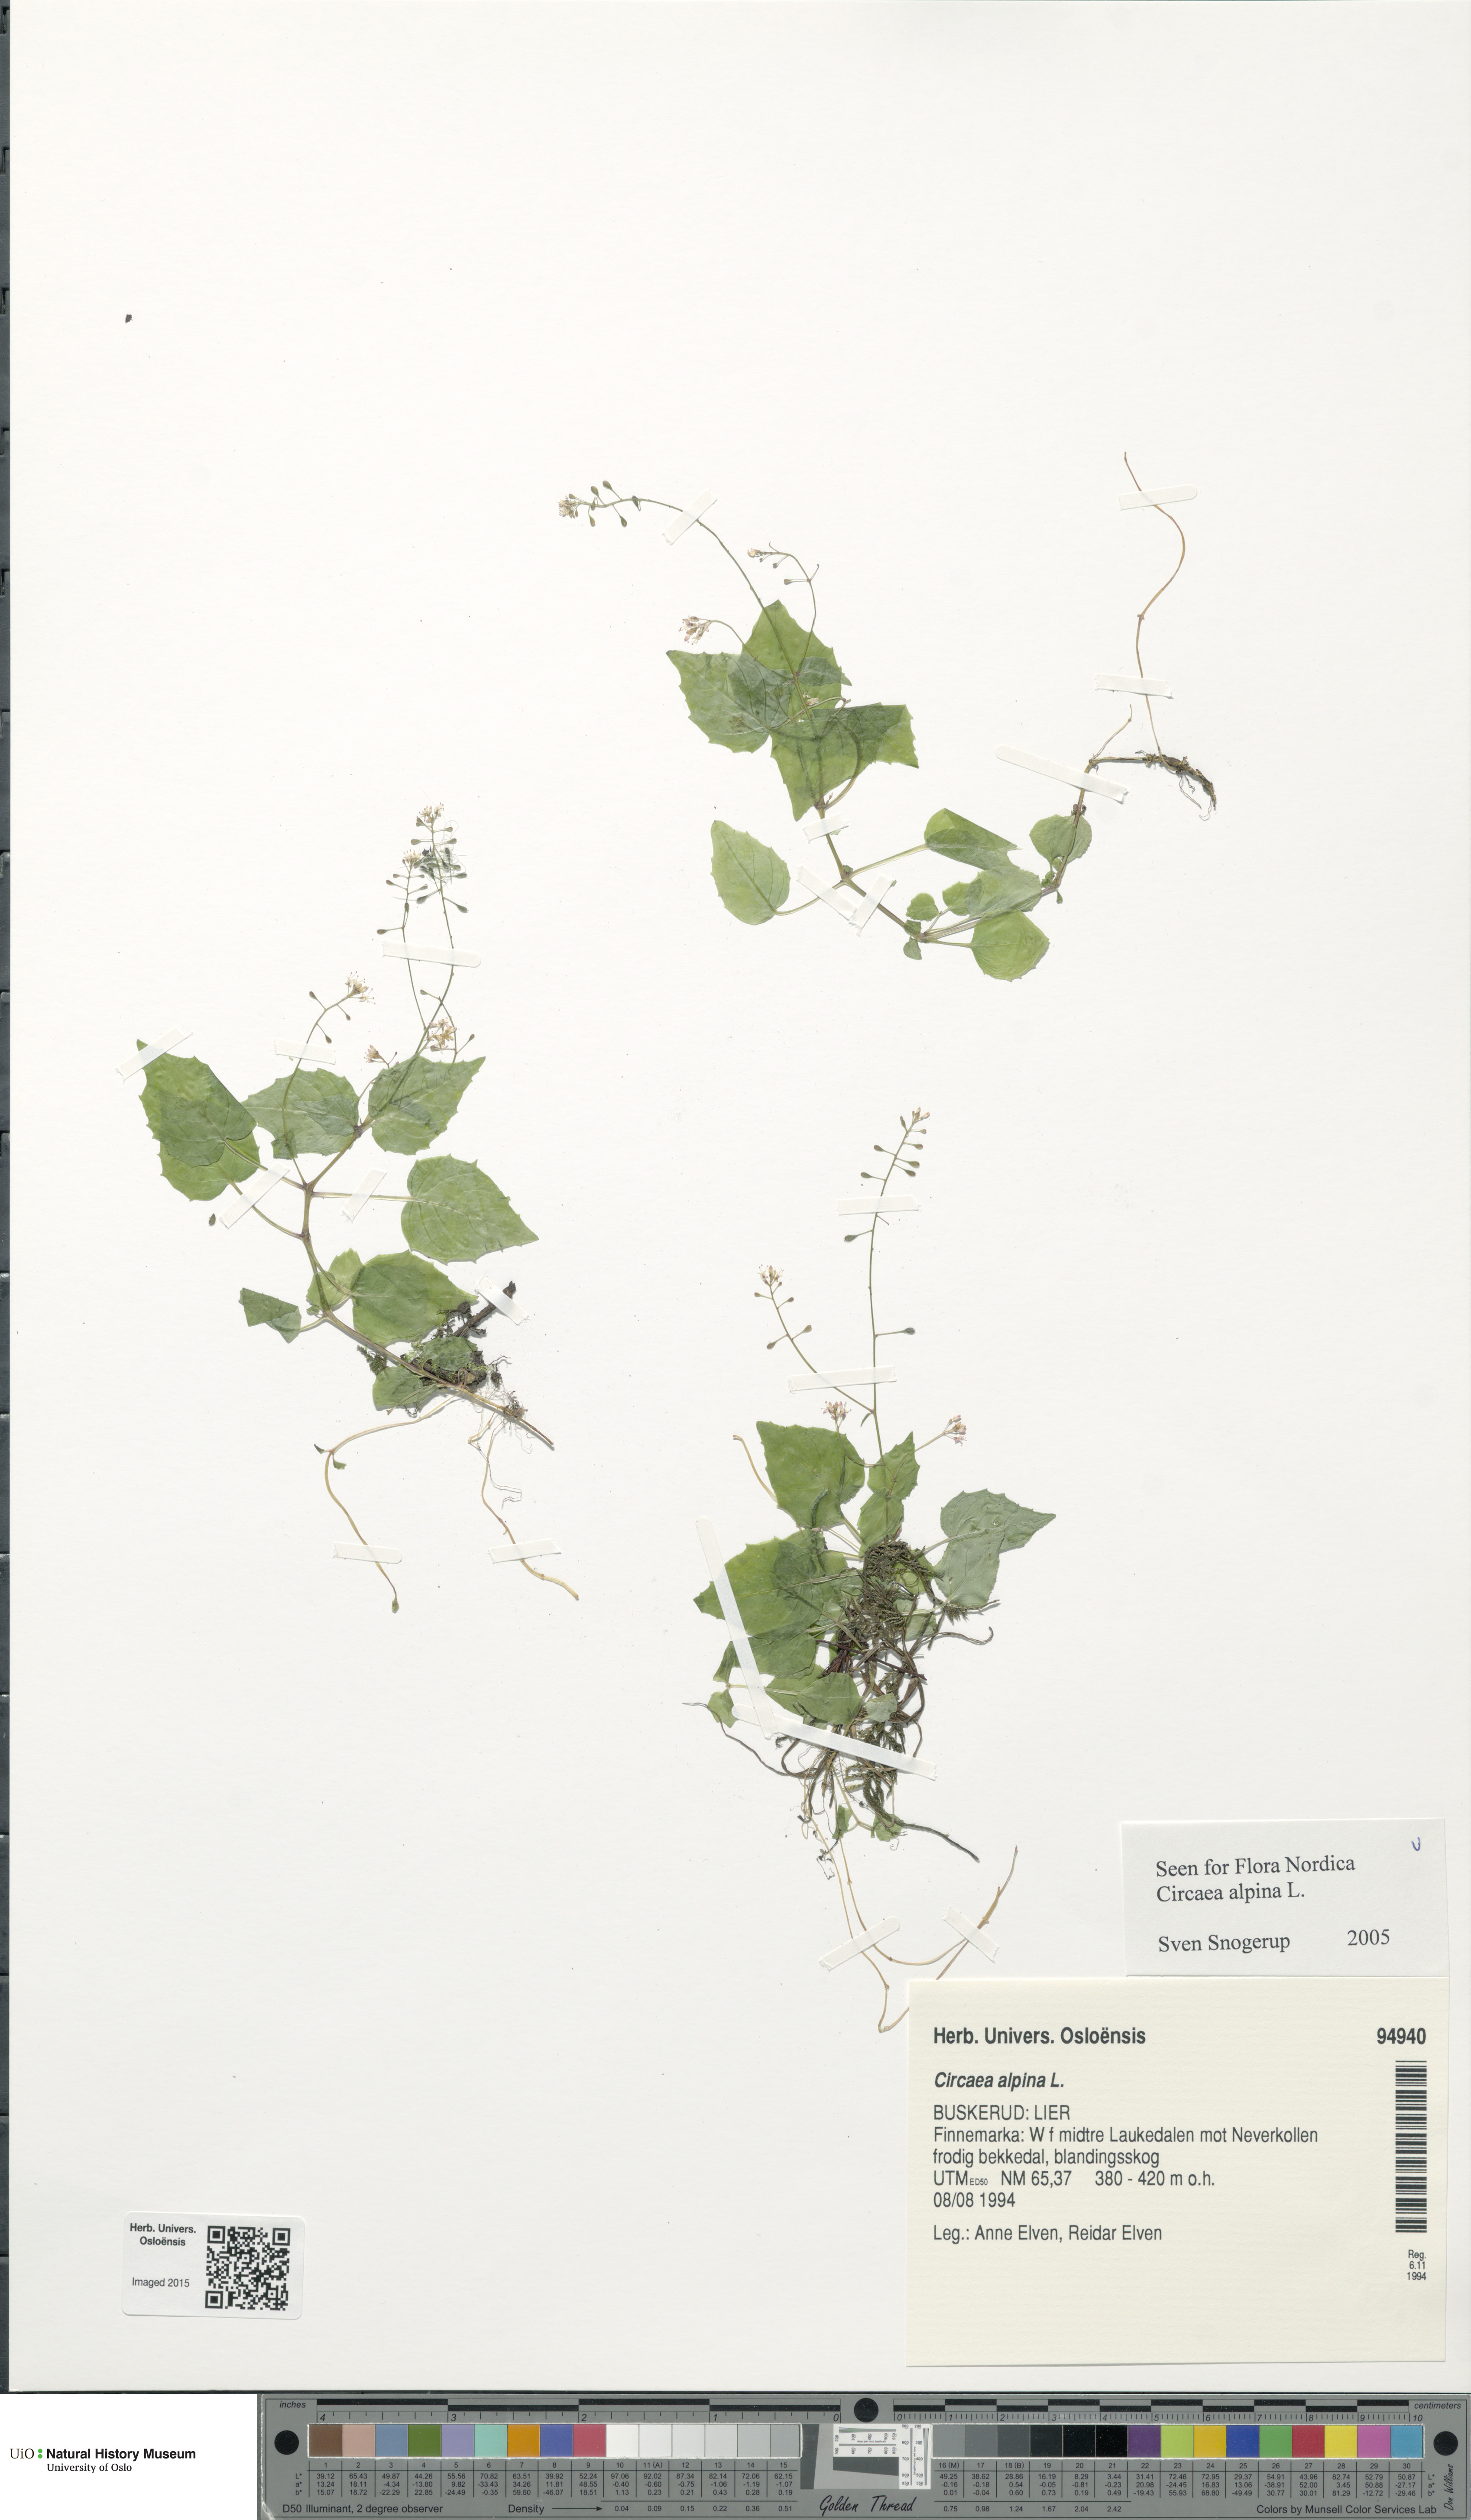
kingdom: Plantae
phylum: Tracheophyta
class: Magnoliopsida
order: Myrtales
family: Onagraceae
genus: Circaea
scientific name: Circaea alpina
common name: Alpine enchanter's-nightshade
